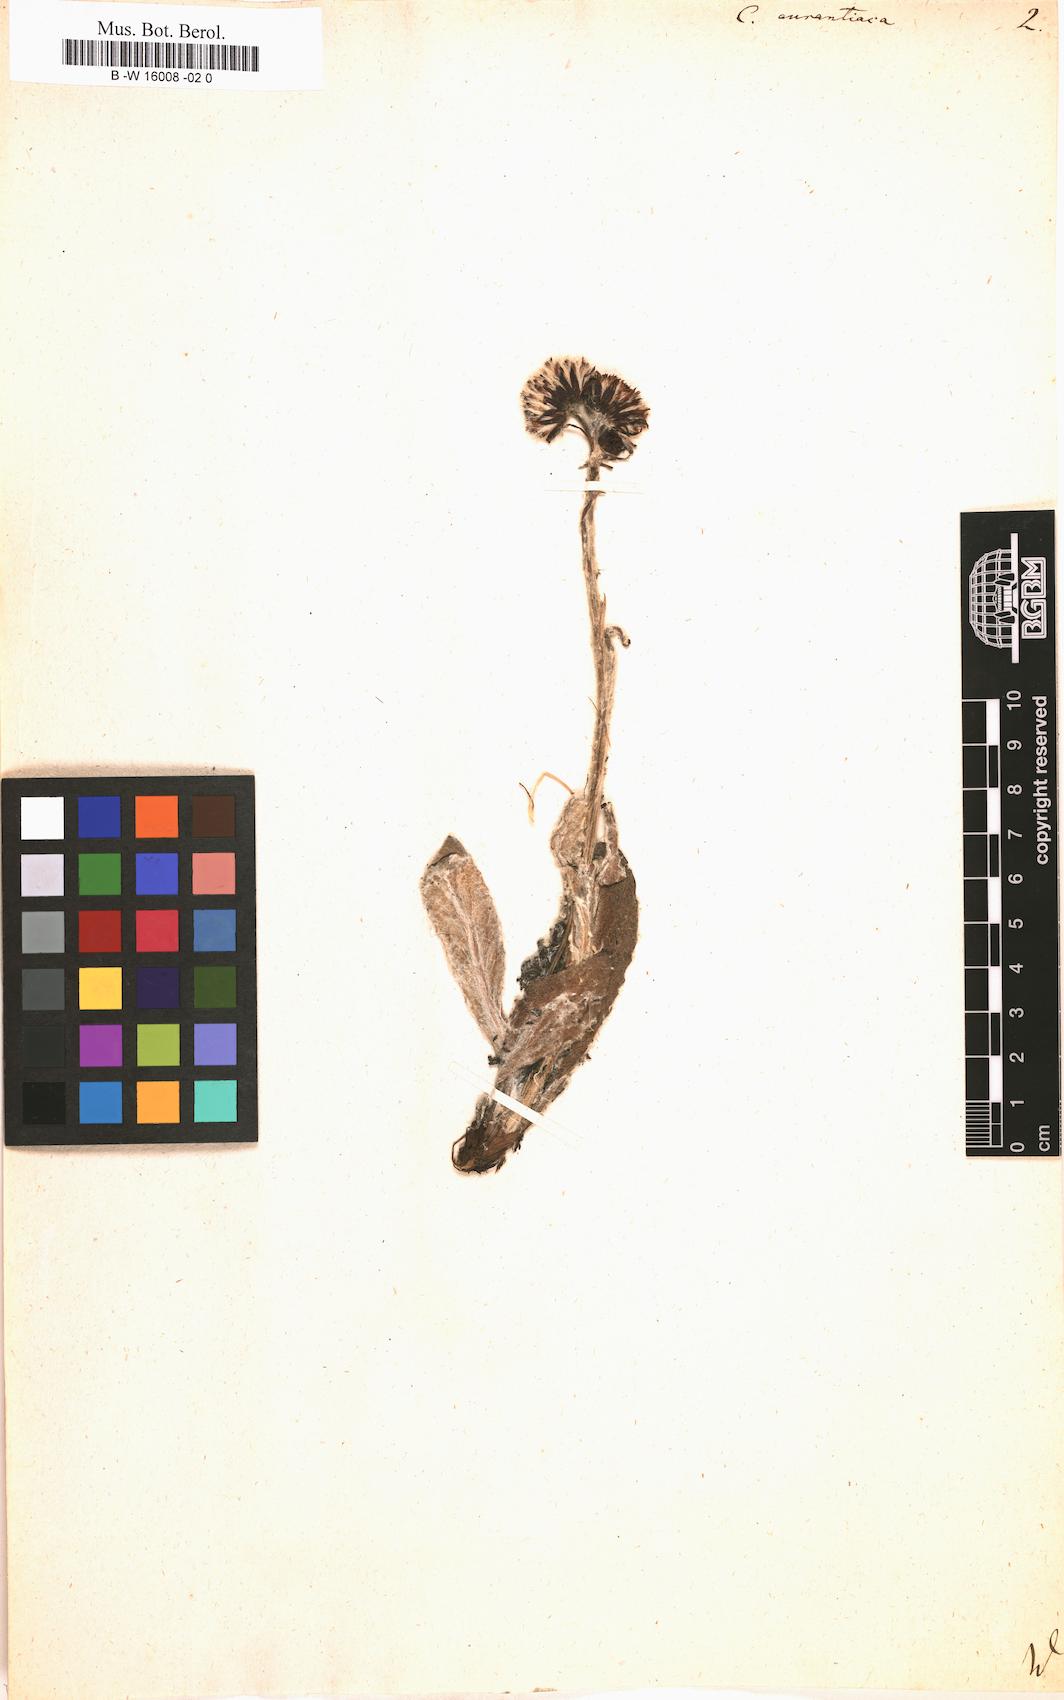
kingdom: Plantae
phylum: Tracheophyta
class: Magnoliopsida
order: Asterales
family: Asteraceae
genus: Tephroseris
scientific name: Tephroseris
